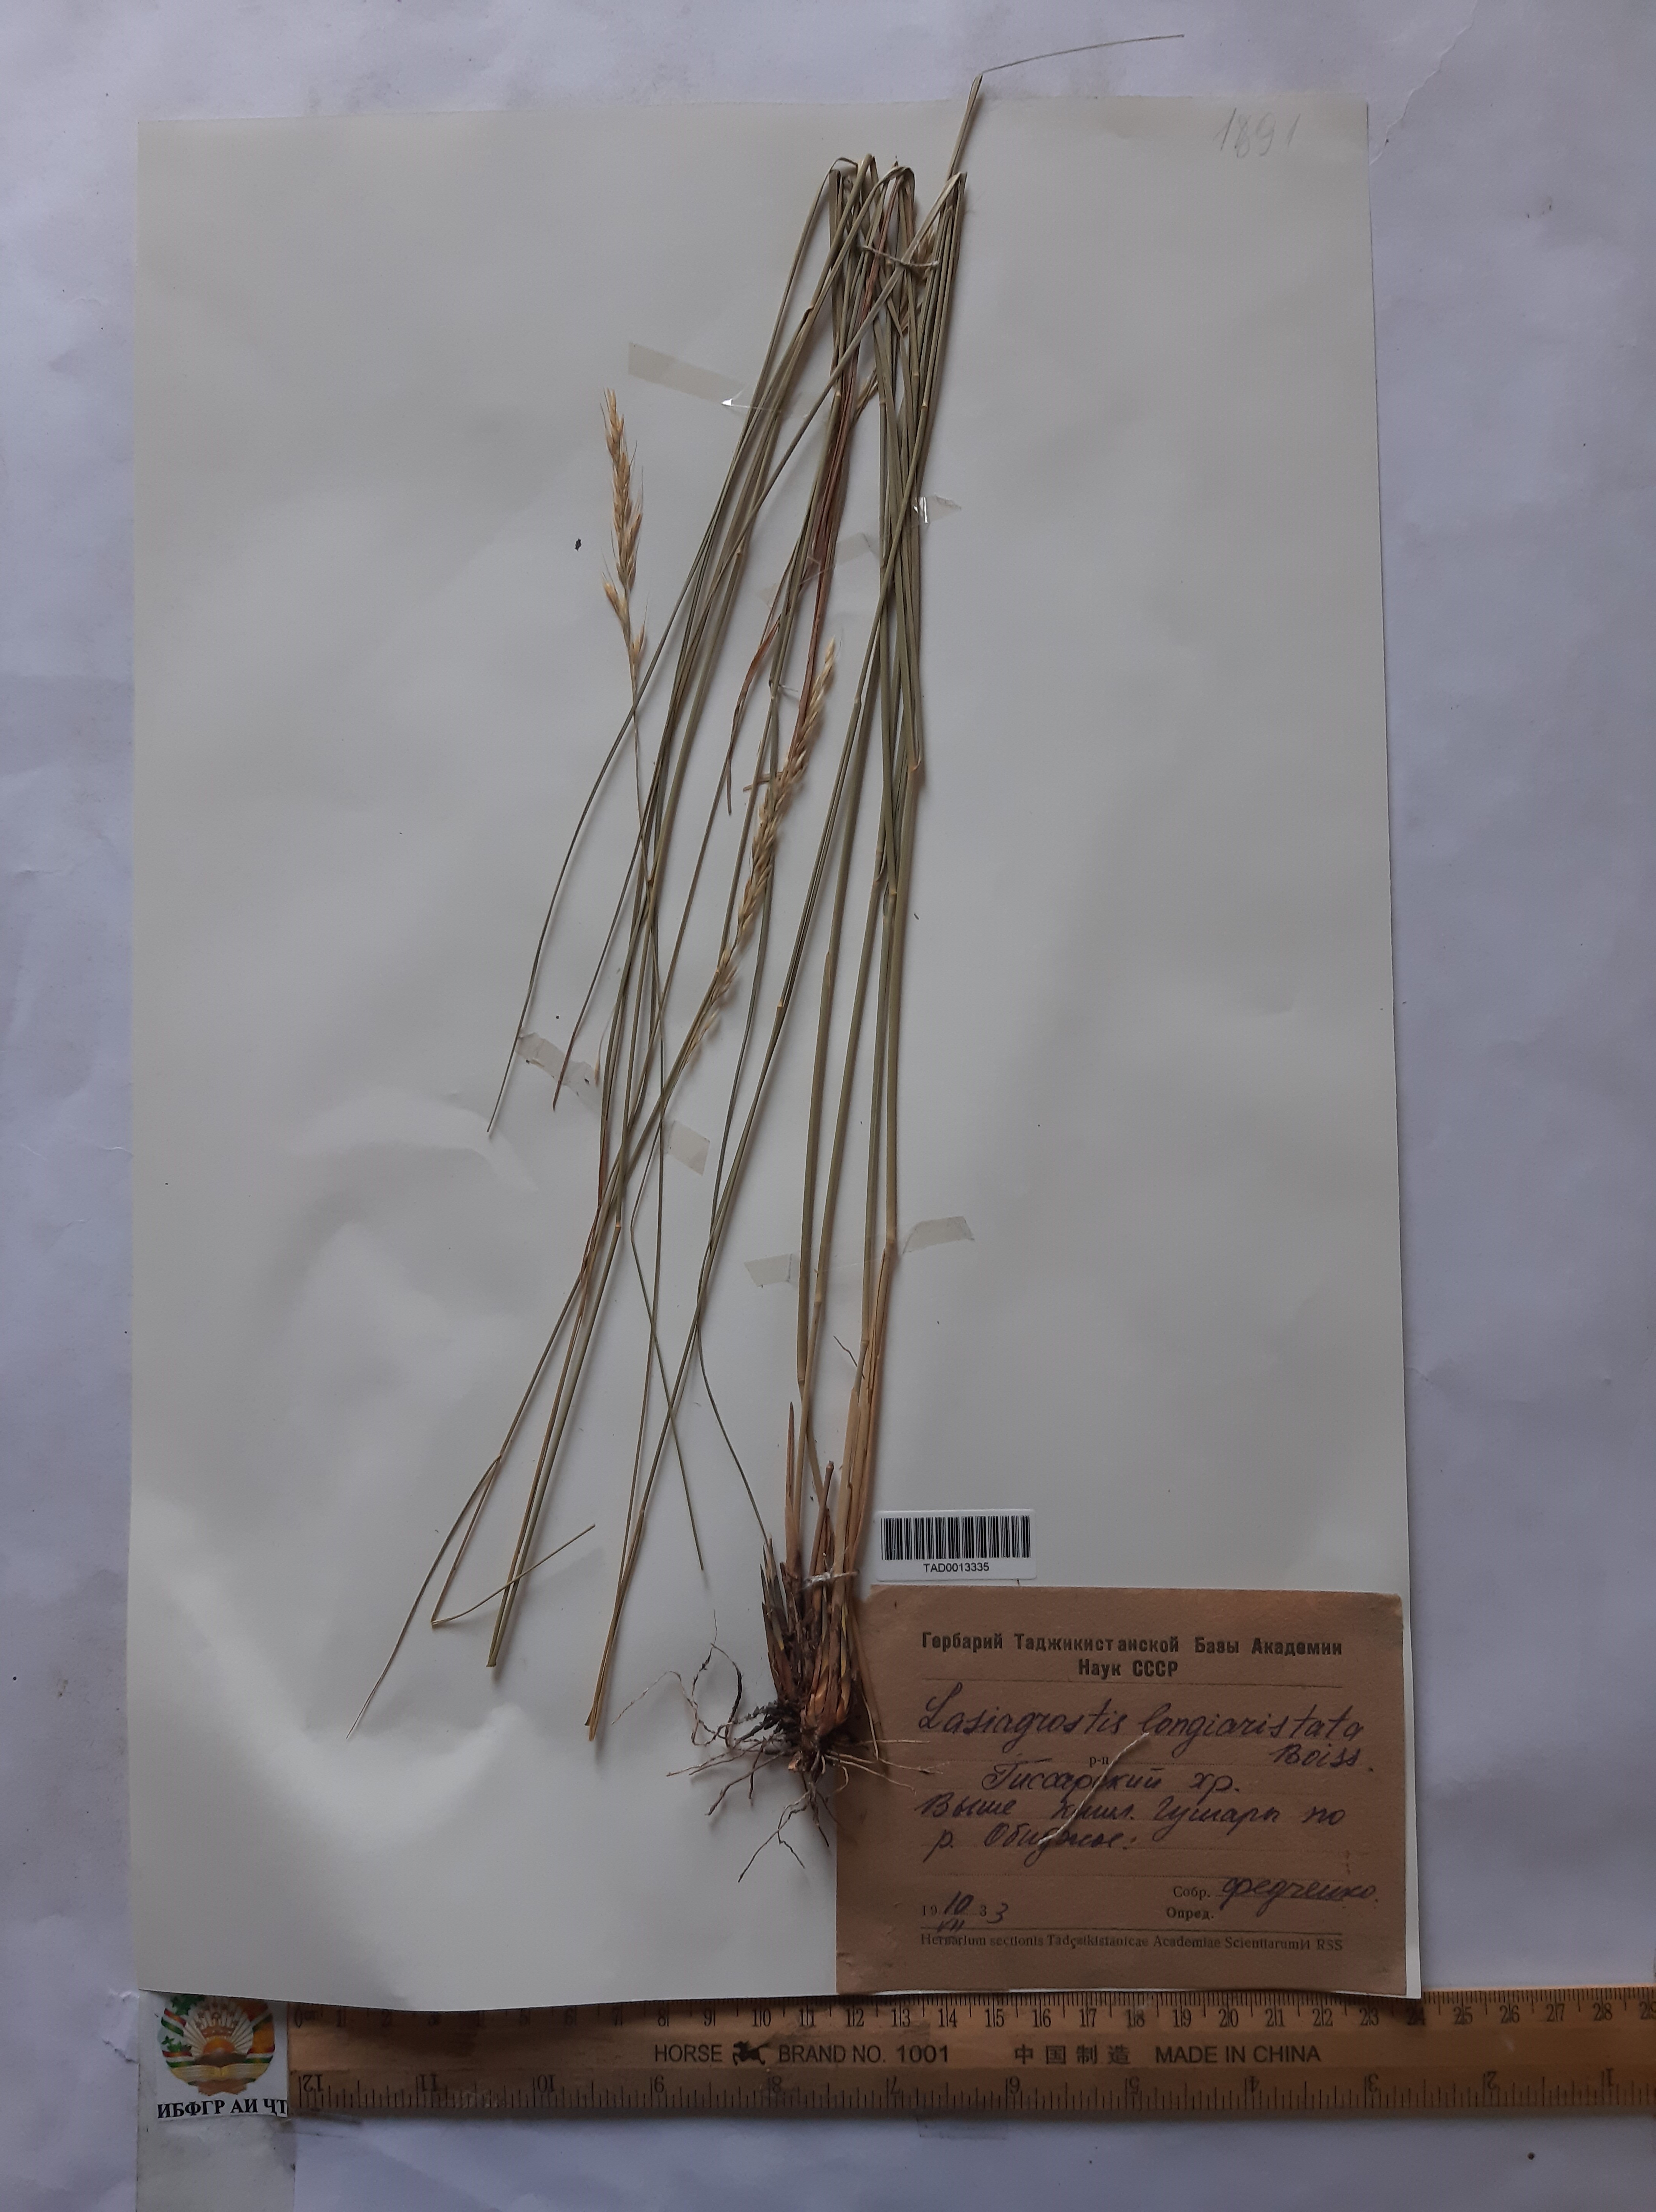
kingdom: Plantae
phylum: Tracheophyta
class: Liliopsida
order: Poales
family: Poaceae
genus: Achnatherum
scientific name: Achnatherum turcomanicum
